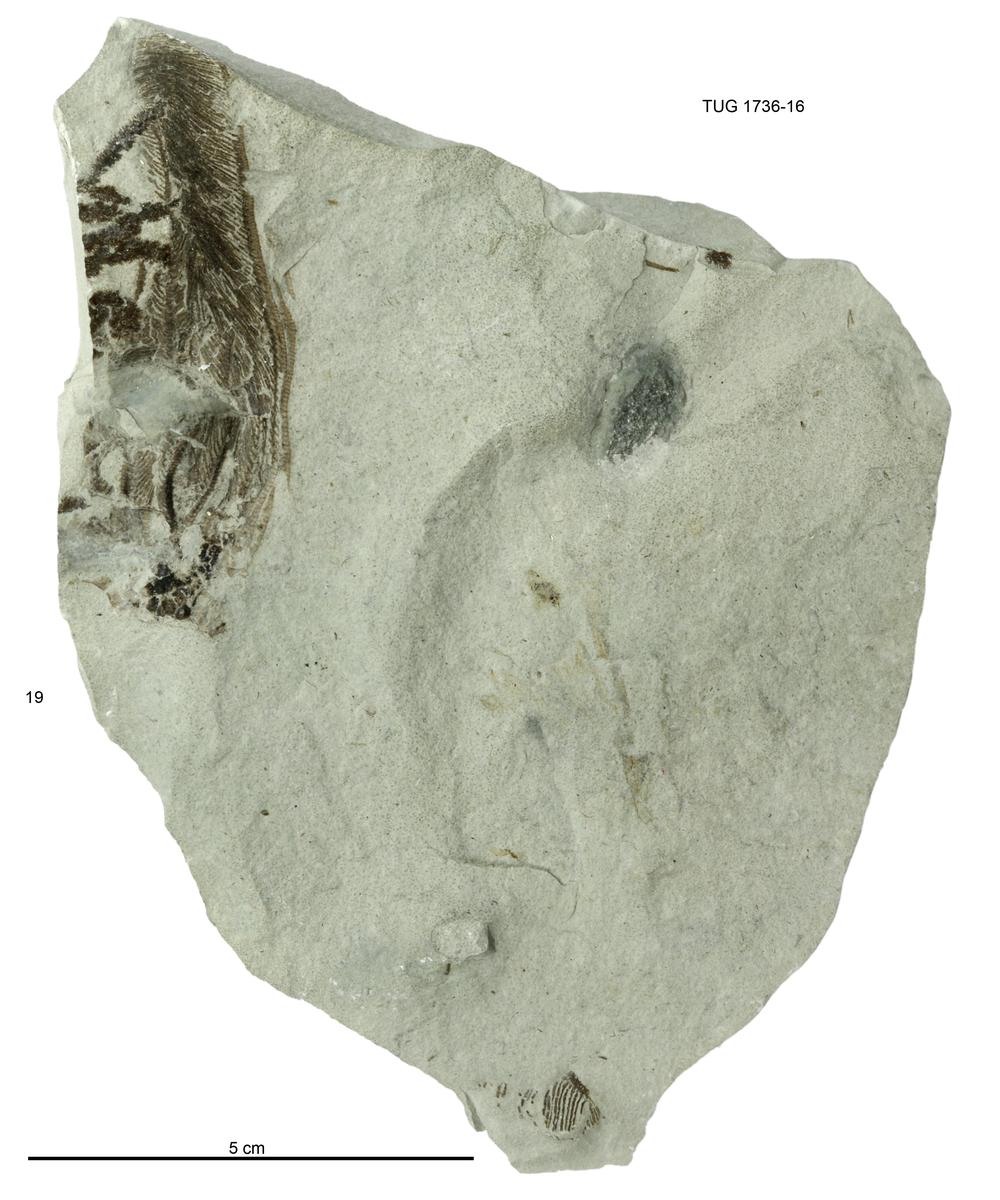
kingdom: Animalia
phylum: Echinodermata
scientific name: Echinodermata
